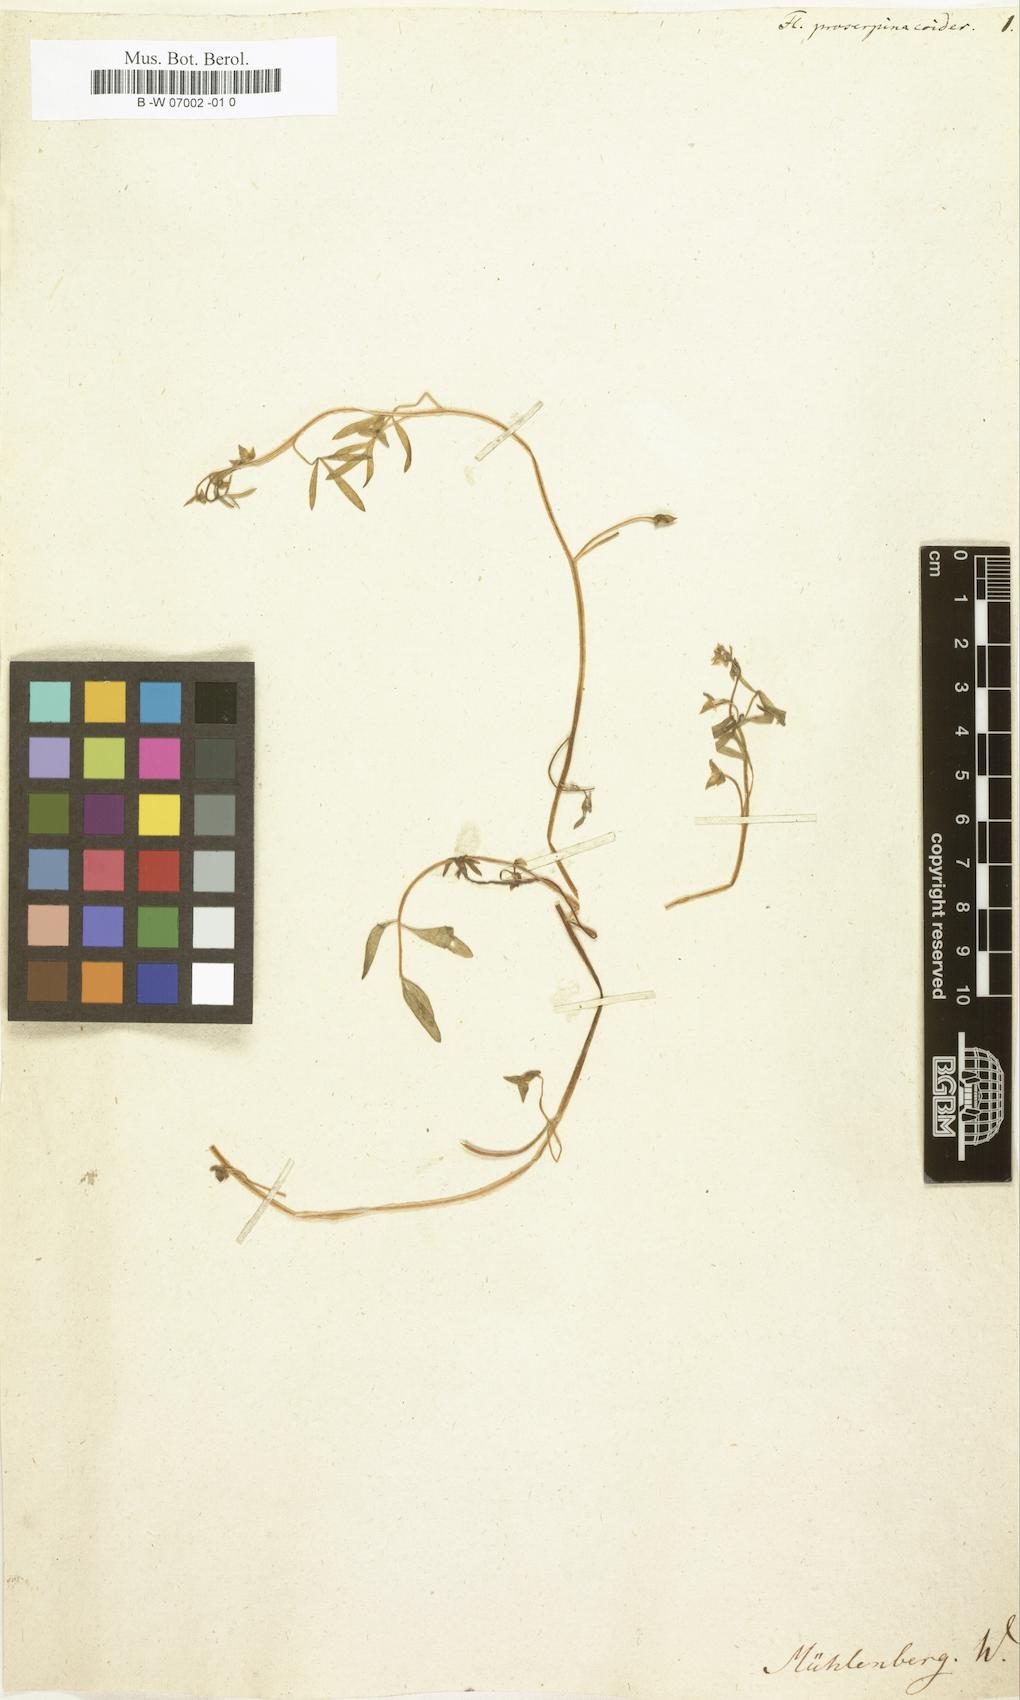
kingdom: Plantae
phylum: Tracheophyta
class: Magnoliopsida
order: Brassicales
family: Limnanthaceae
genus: Floerkea
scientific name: Floerkea proserpinacoides
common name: False mermaid
